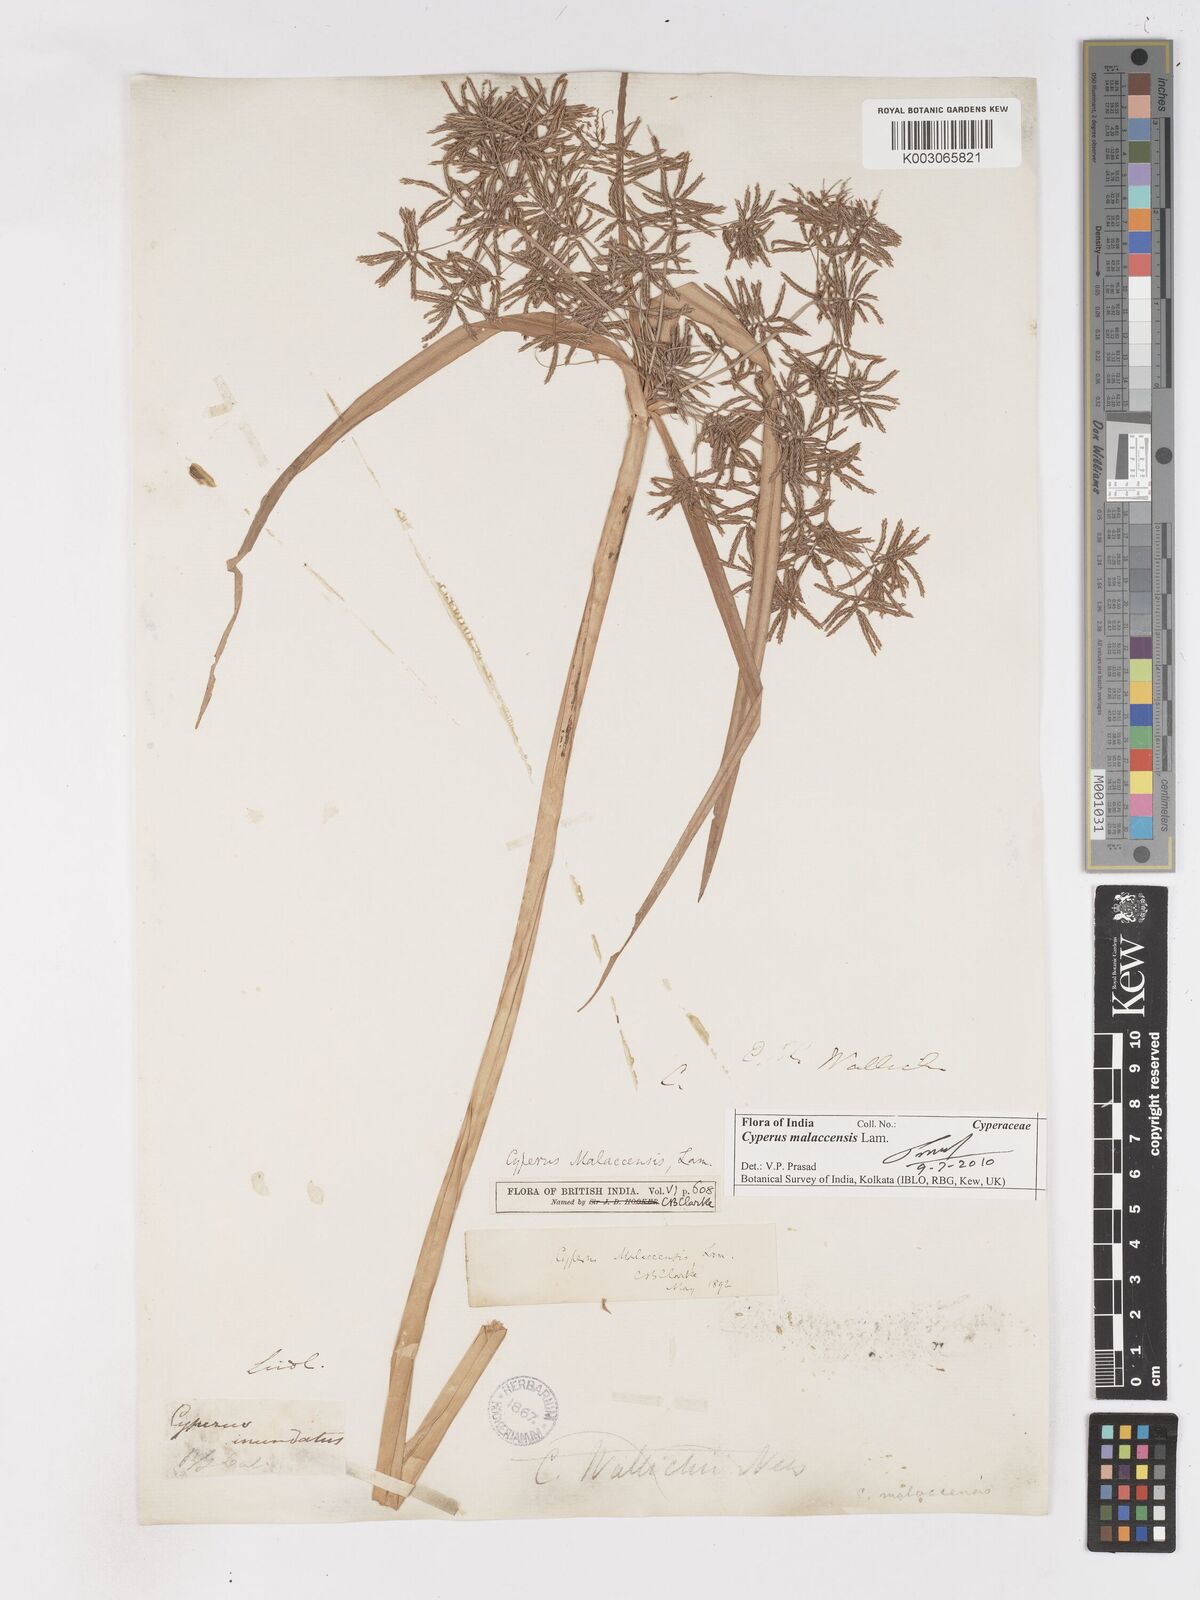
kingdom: Plantae
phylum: Tracheophyta
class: Liliopsida
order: Poales
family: Cyperaceae
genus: Cyperus
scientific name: Cyperus malaccensis
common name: Shichito matgrass
